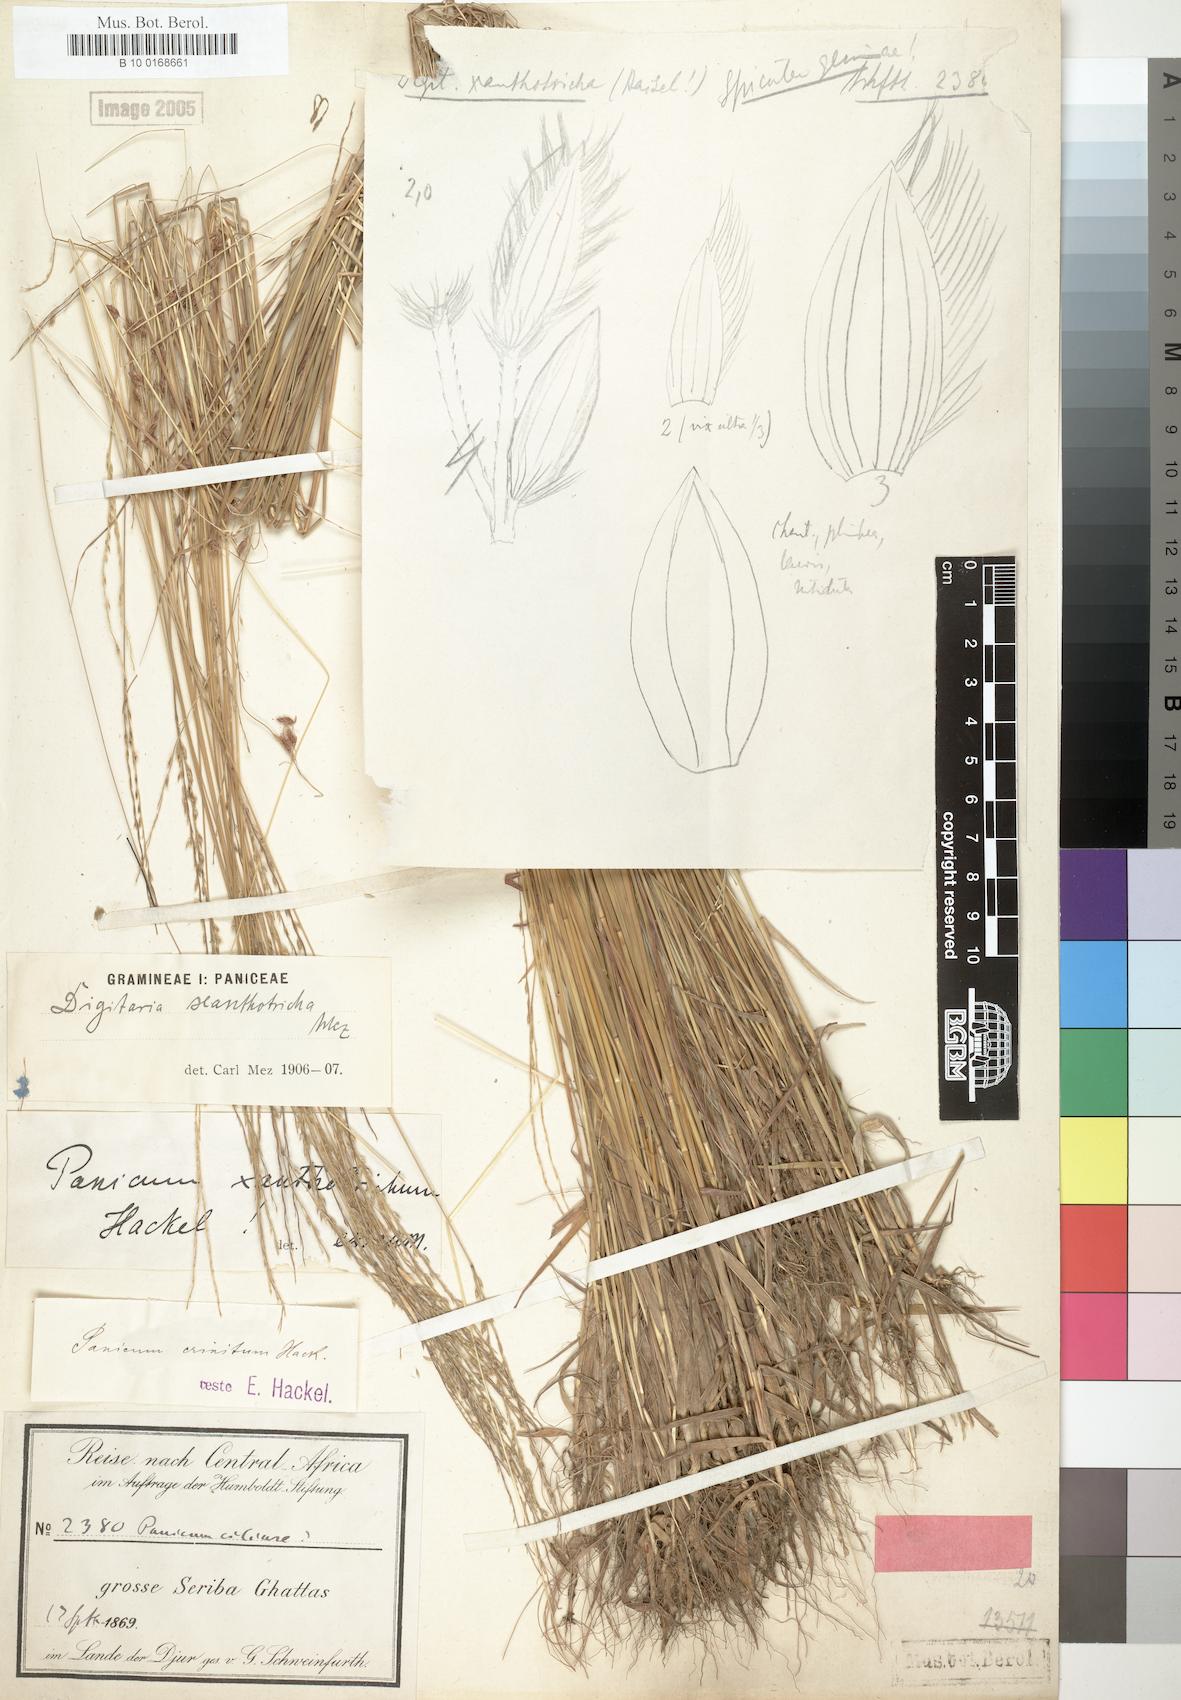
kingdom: Plantae
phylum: Tracheophyta
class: Liliopsida
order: Poales
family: Poaceae
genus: Digitaria
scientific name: Digitaria xanthotricha
